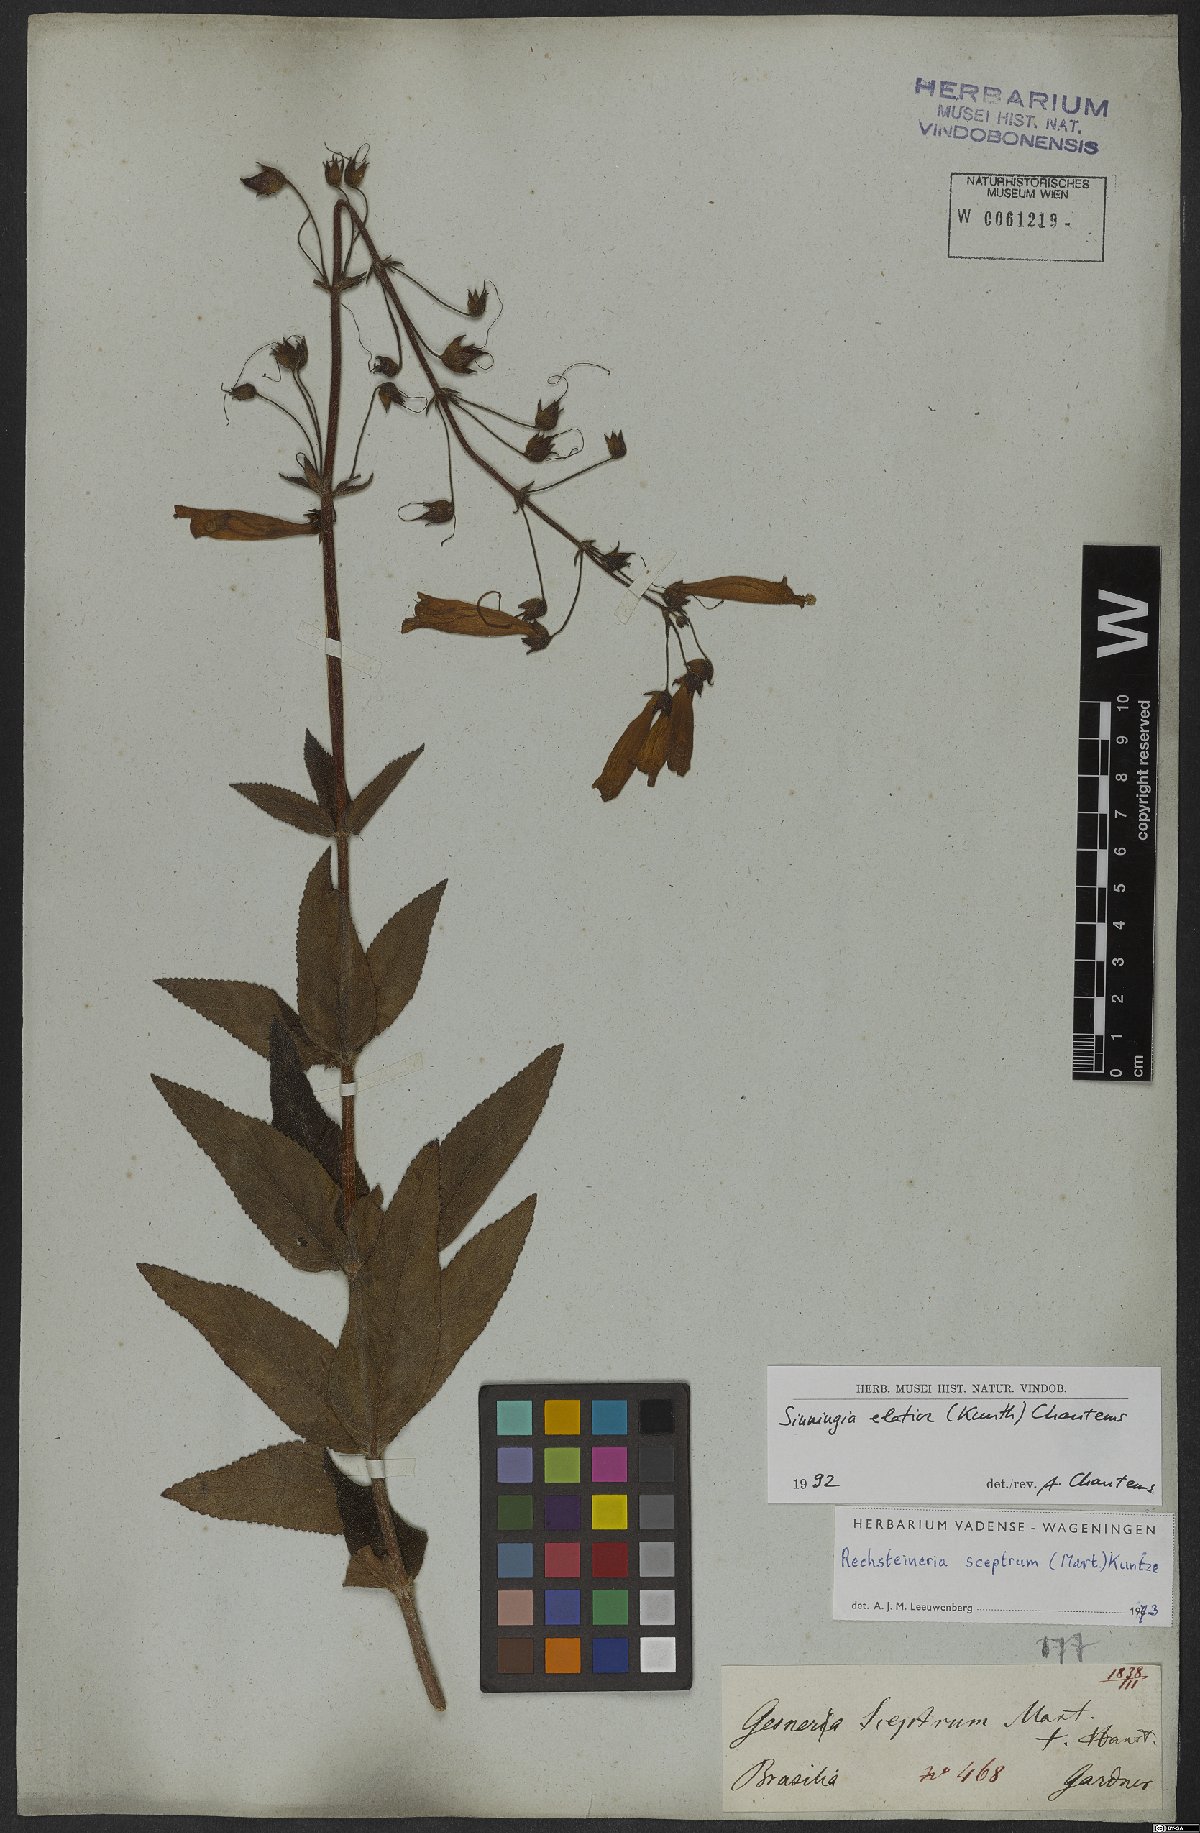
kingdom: Plantae
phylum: Tracheophyta
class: Magnoliopsida
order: Lamiales
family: Gesneriaceae
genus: Sinningia
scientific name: Sinningia elatior
